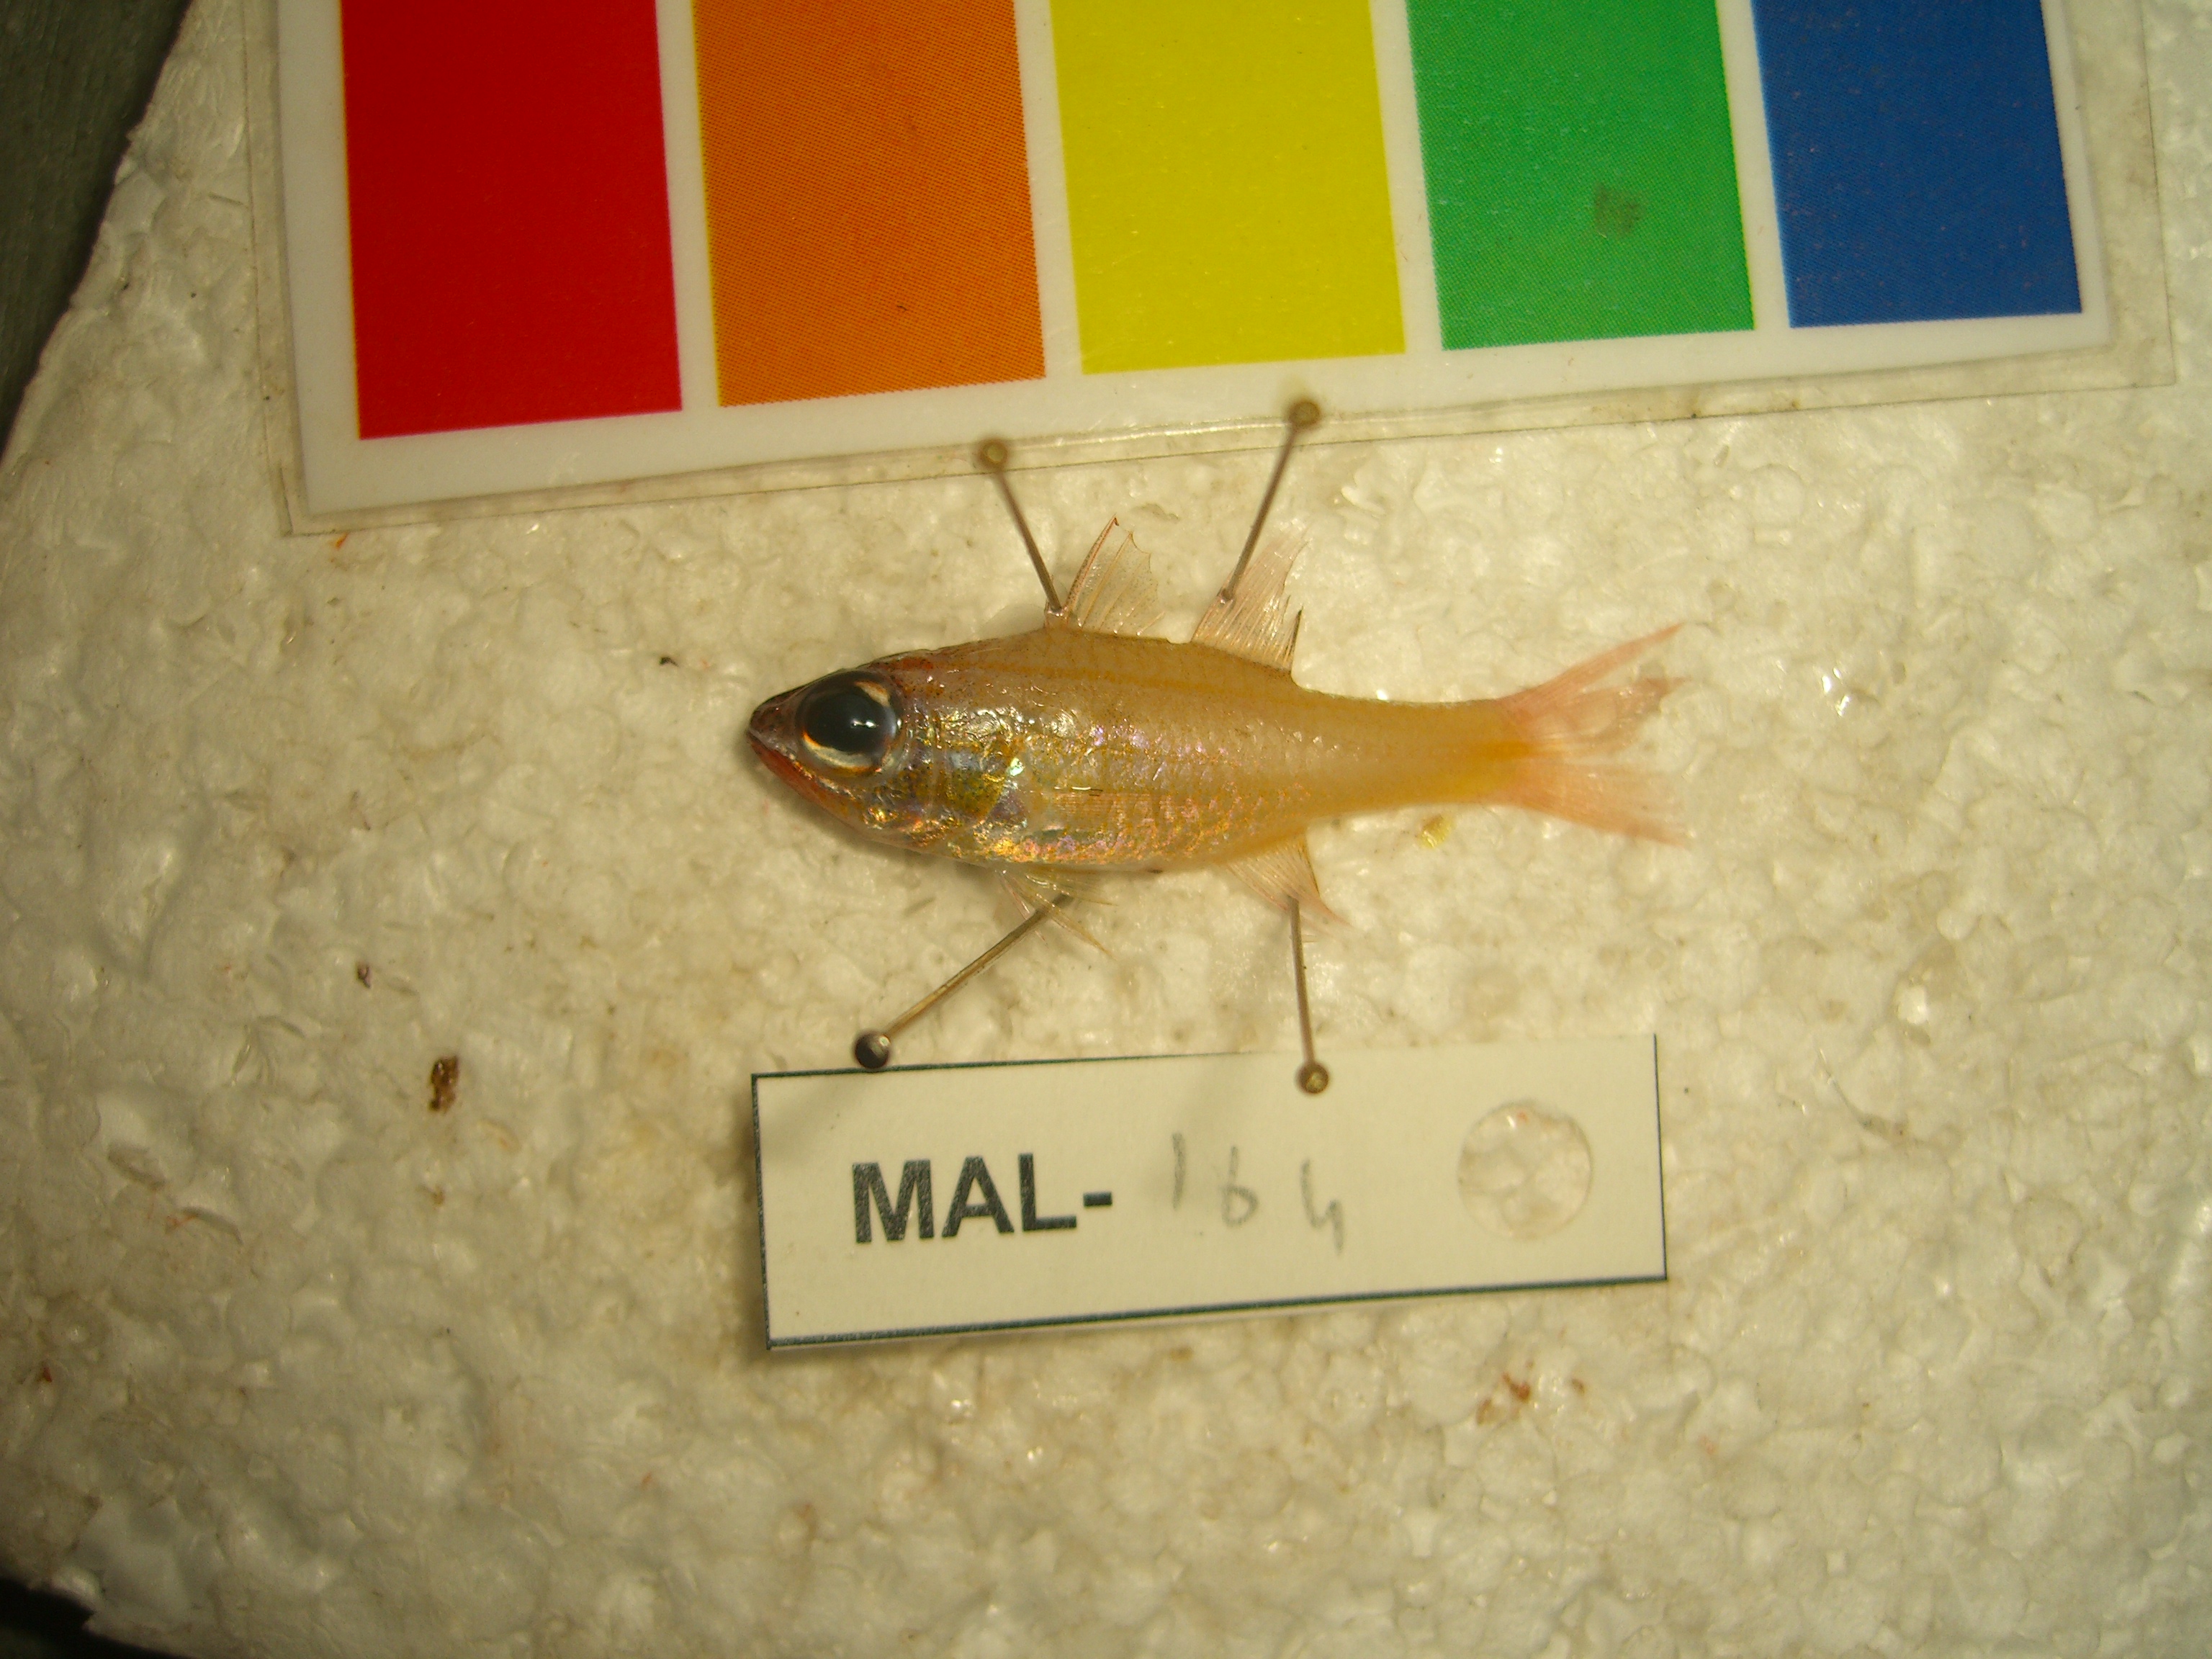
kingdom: Animalia
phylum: Chordata
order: Perciformes
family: Apogonidae
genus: Ostorhinchus
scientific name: Ostorhinchus
